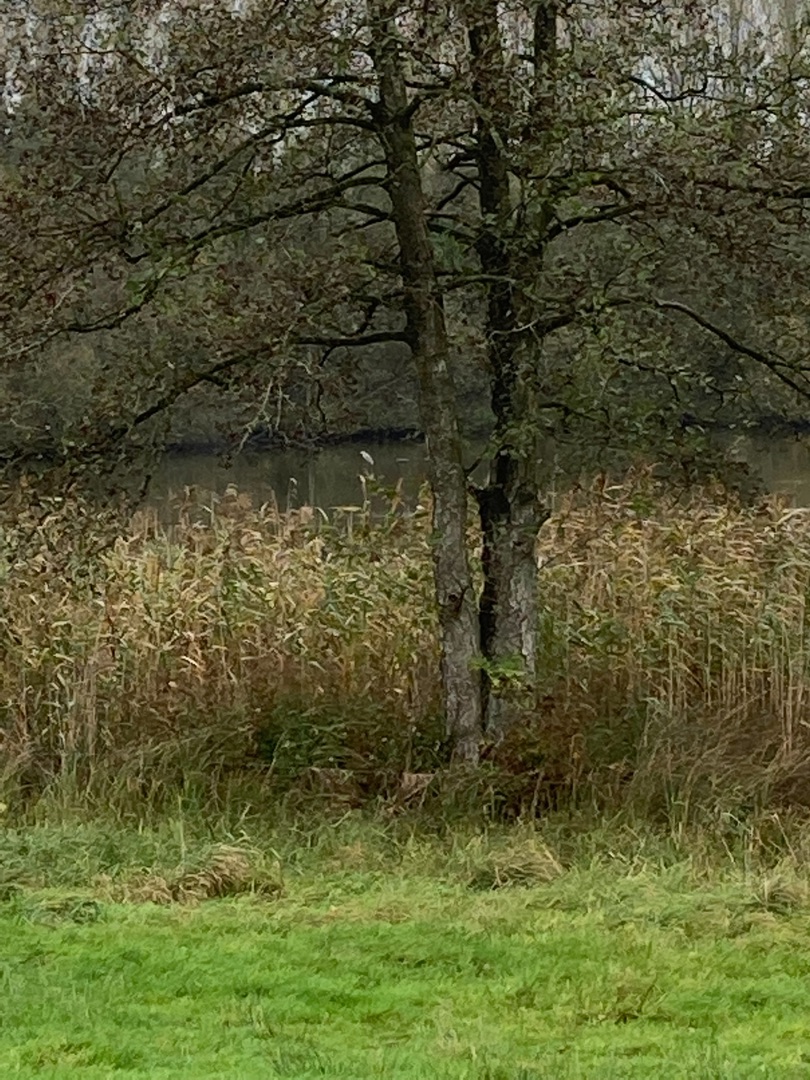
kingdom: Animalia
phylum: Chordata
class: Aves
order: Pelecaniformes
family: Ardeidae
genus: Ardea
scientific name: Ardea cinerea
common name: Fiskehejre
